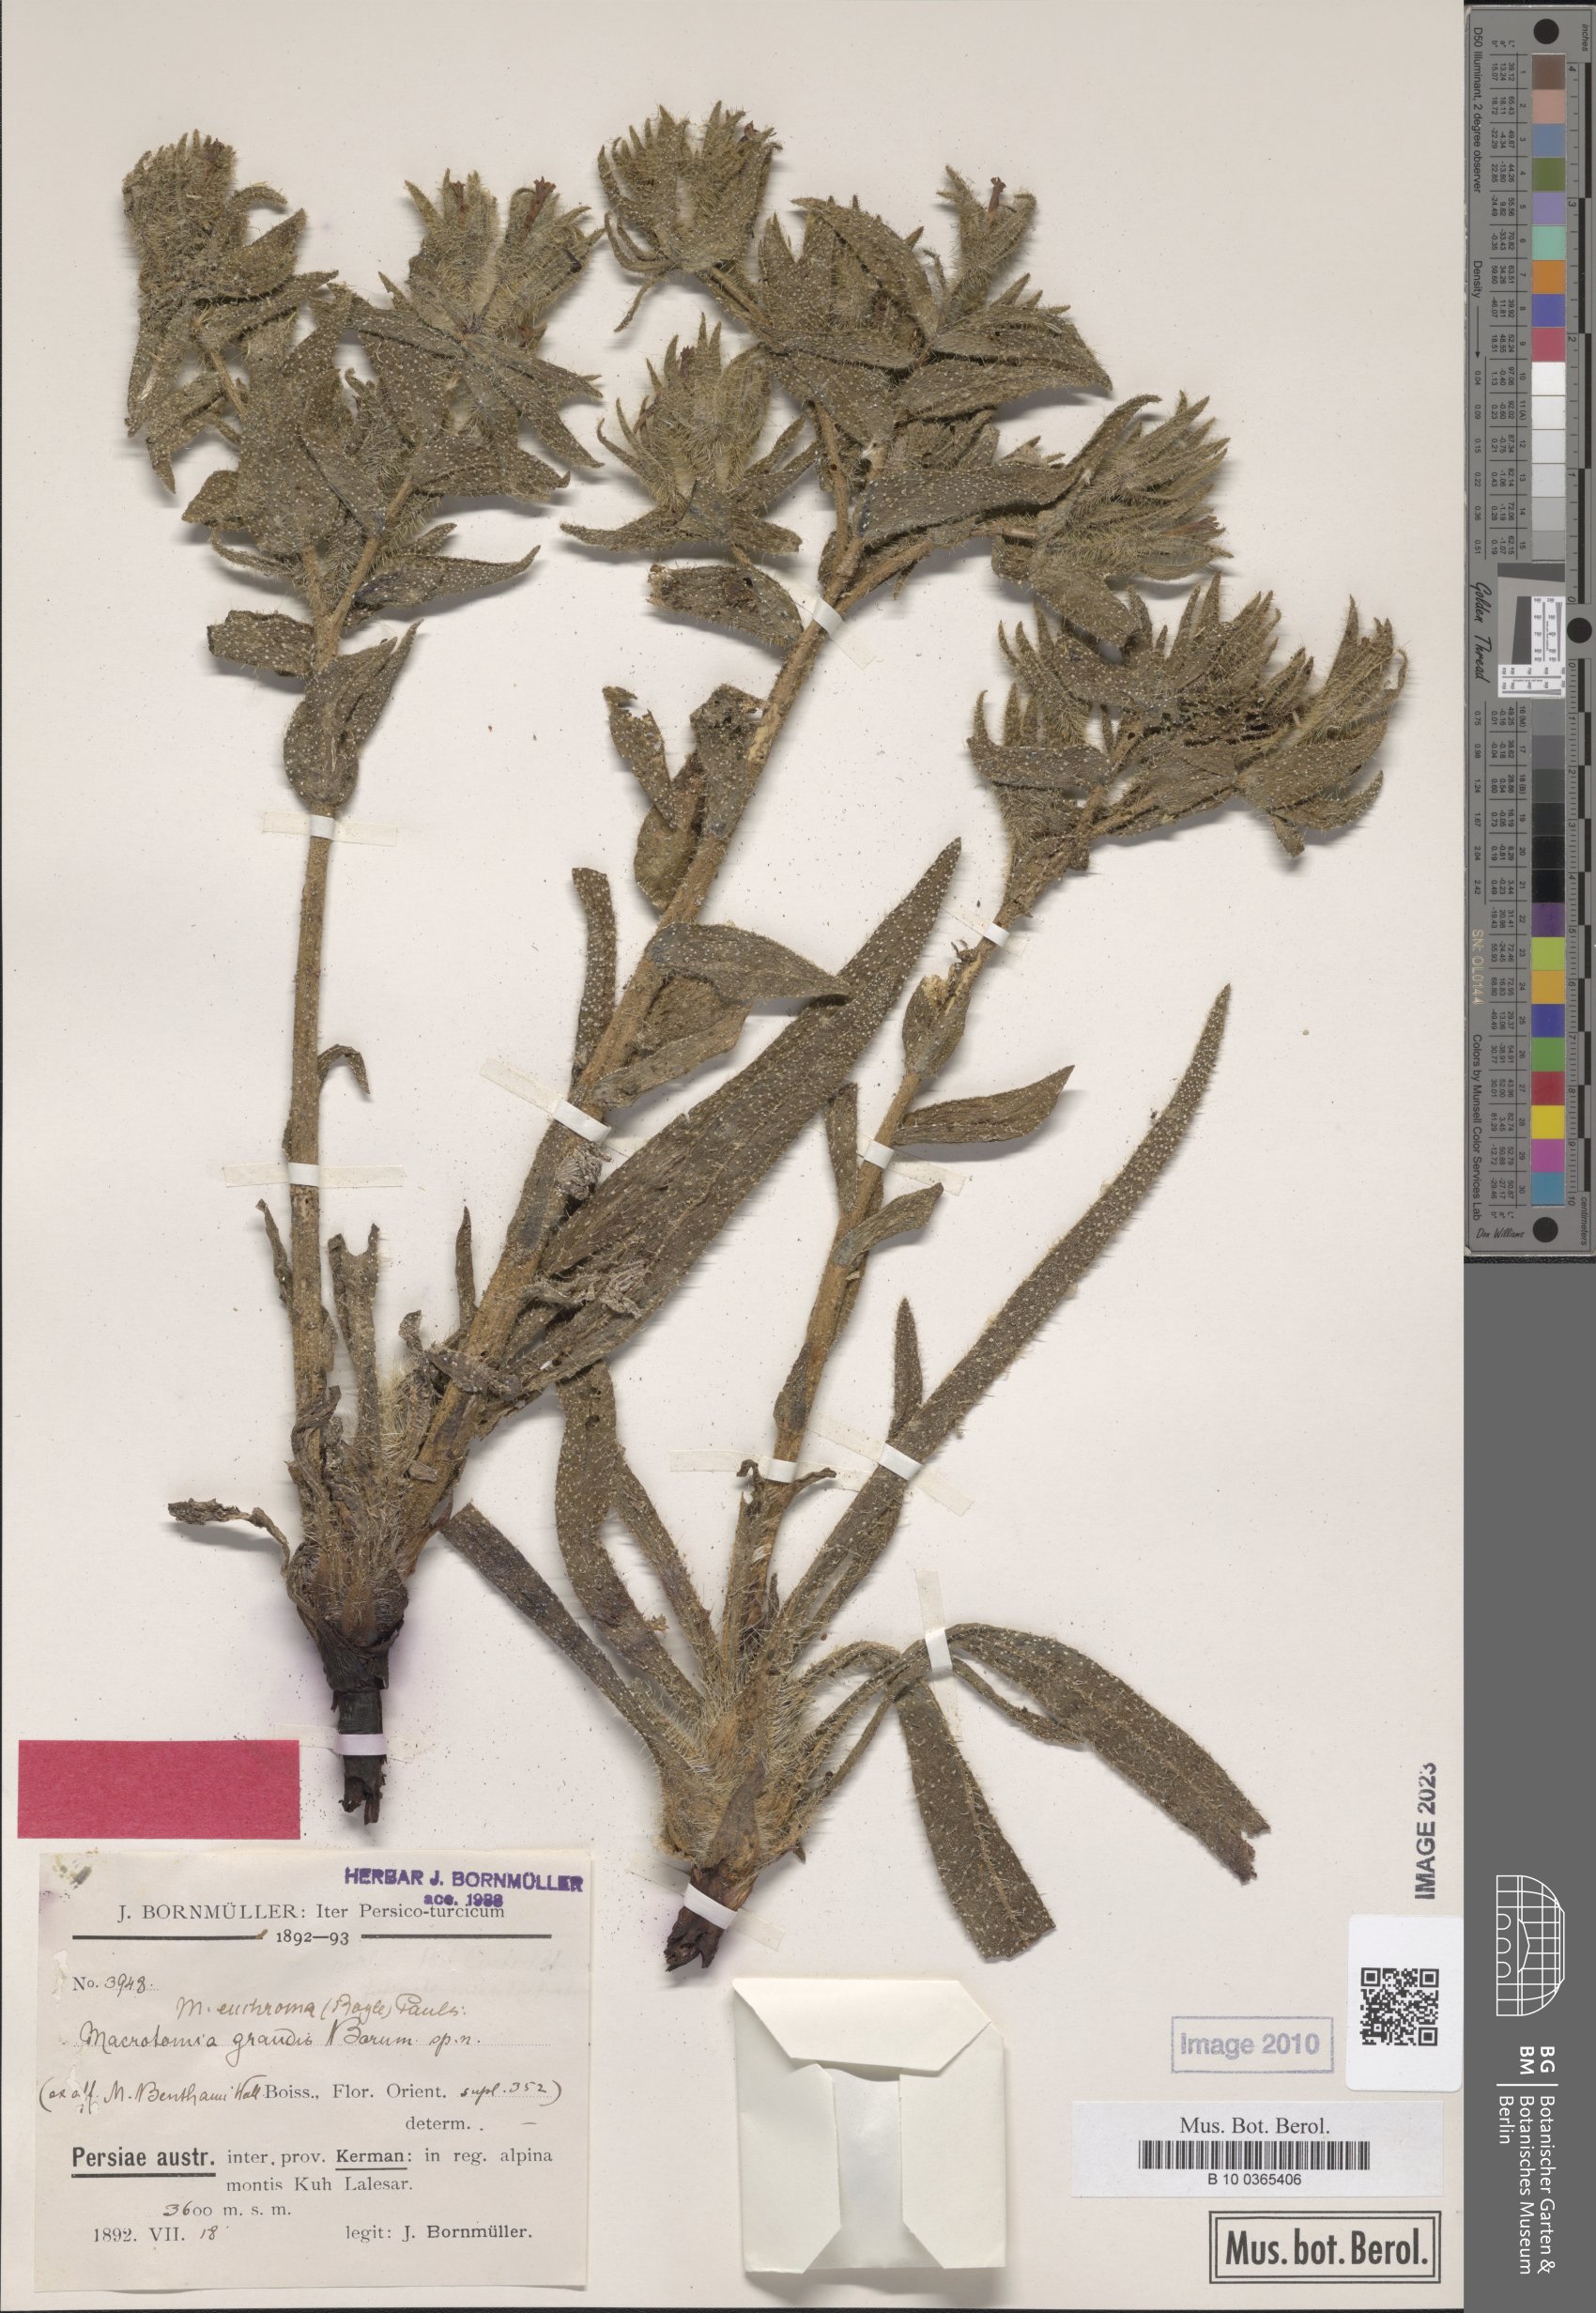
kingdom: Plantae
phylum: Tracheophyta
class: Magnoliopsida
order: Boraginales
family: Boraginaceae
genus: Arnebia
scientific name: Arnebia euchroma
